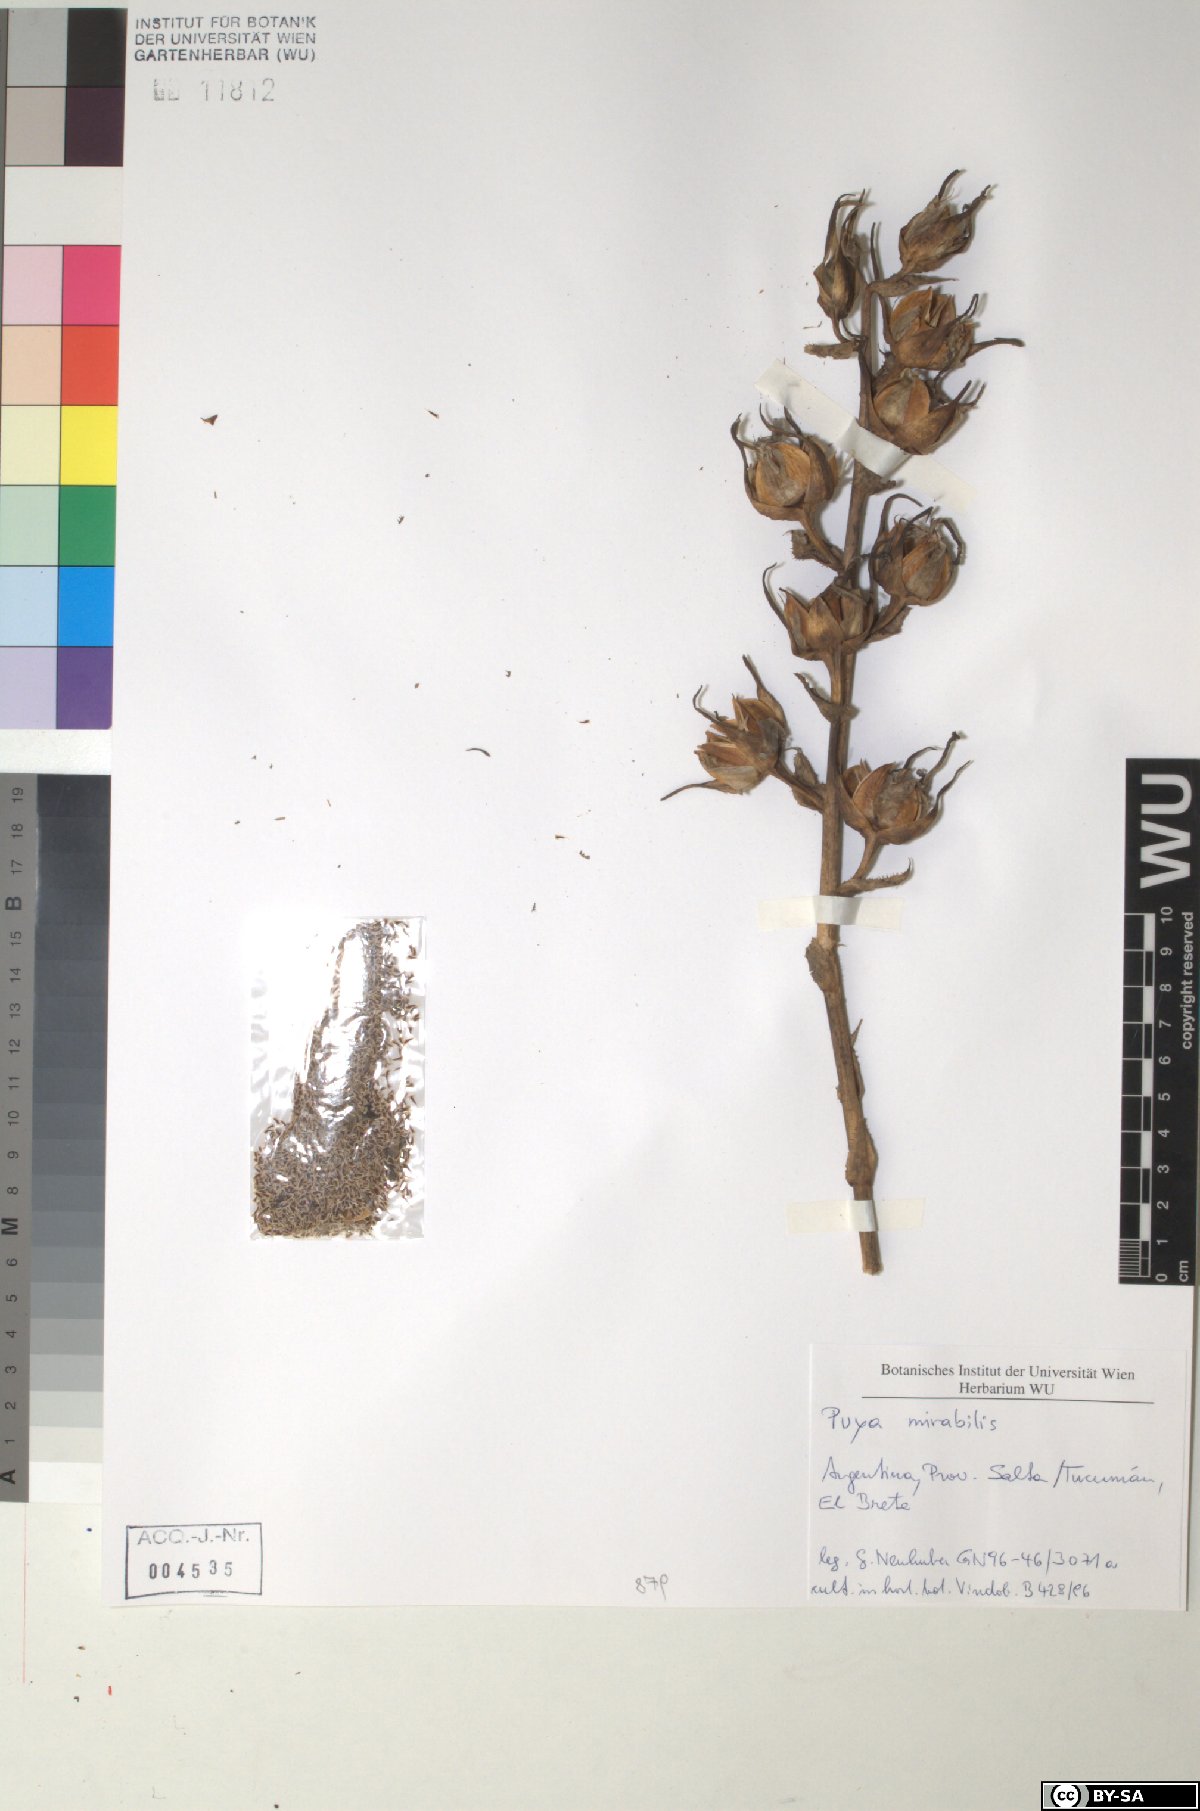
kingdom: Plantae
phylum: Tracheophyta
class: Liliopsida
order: Poales
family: Bromeliaceae
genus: Puya
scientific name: Puya mirabilis
